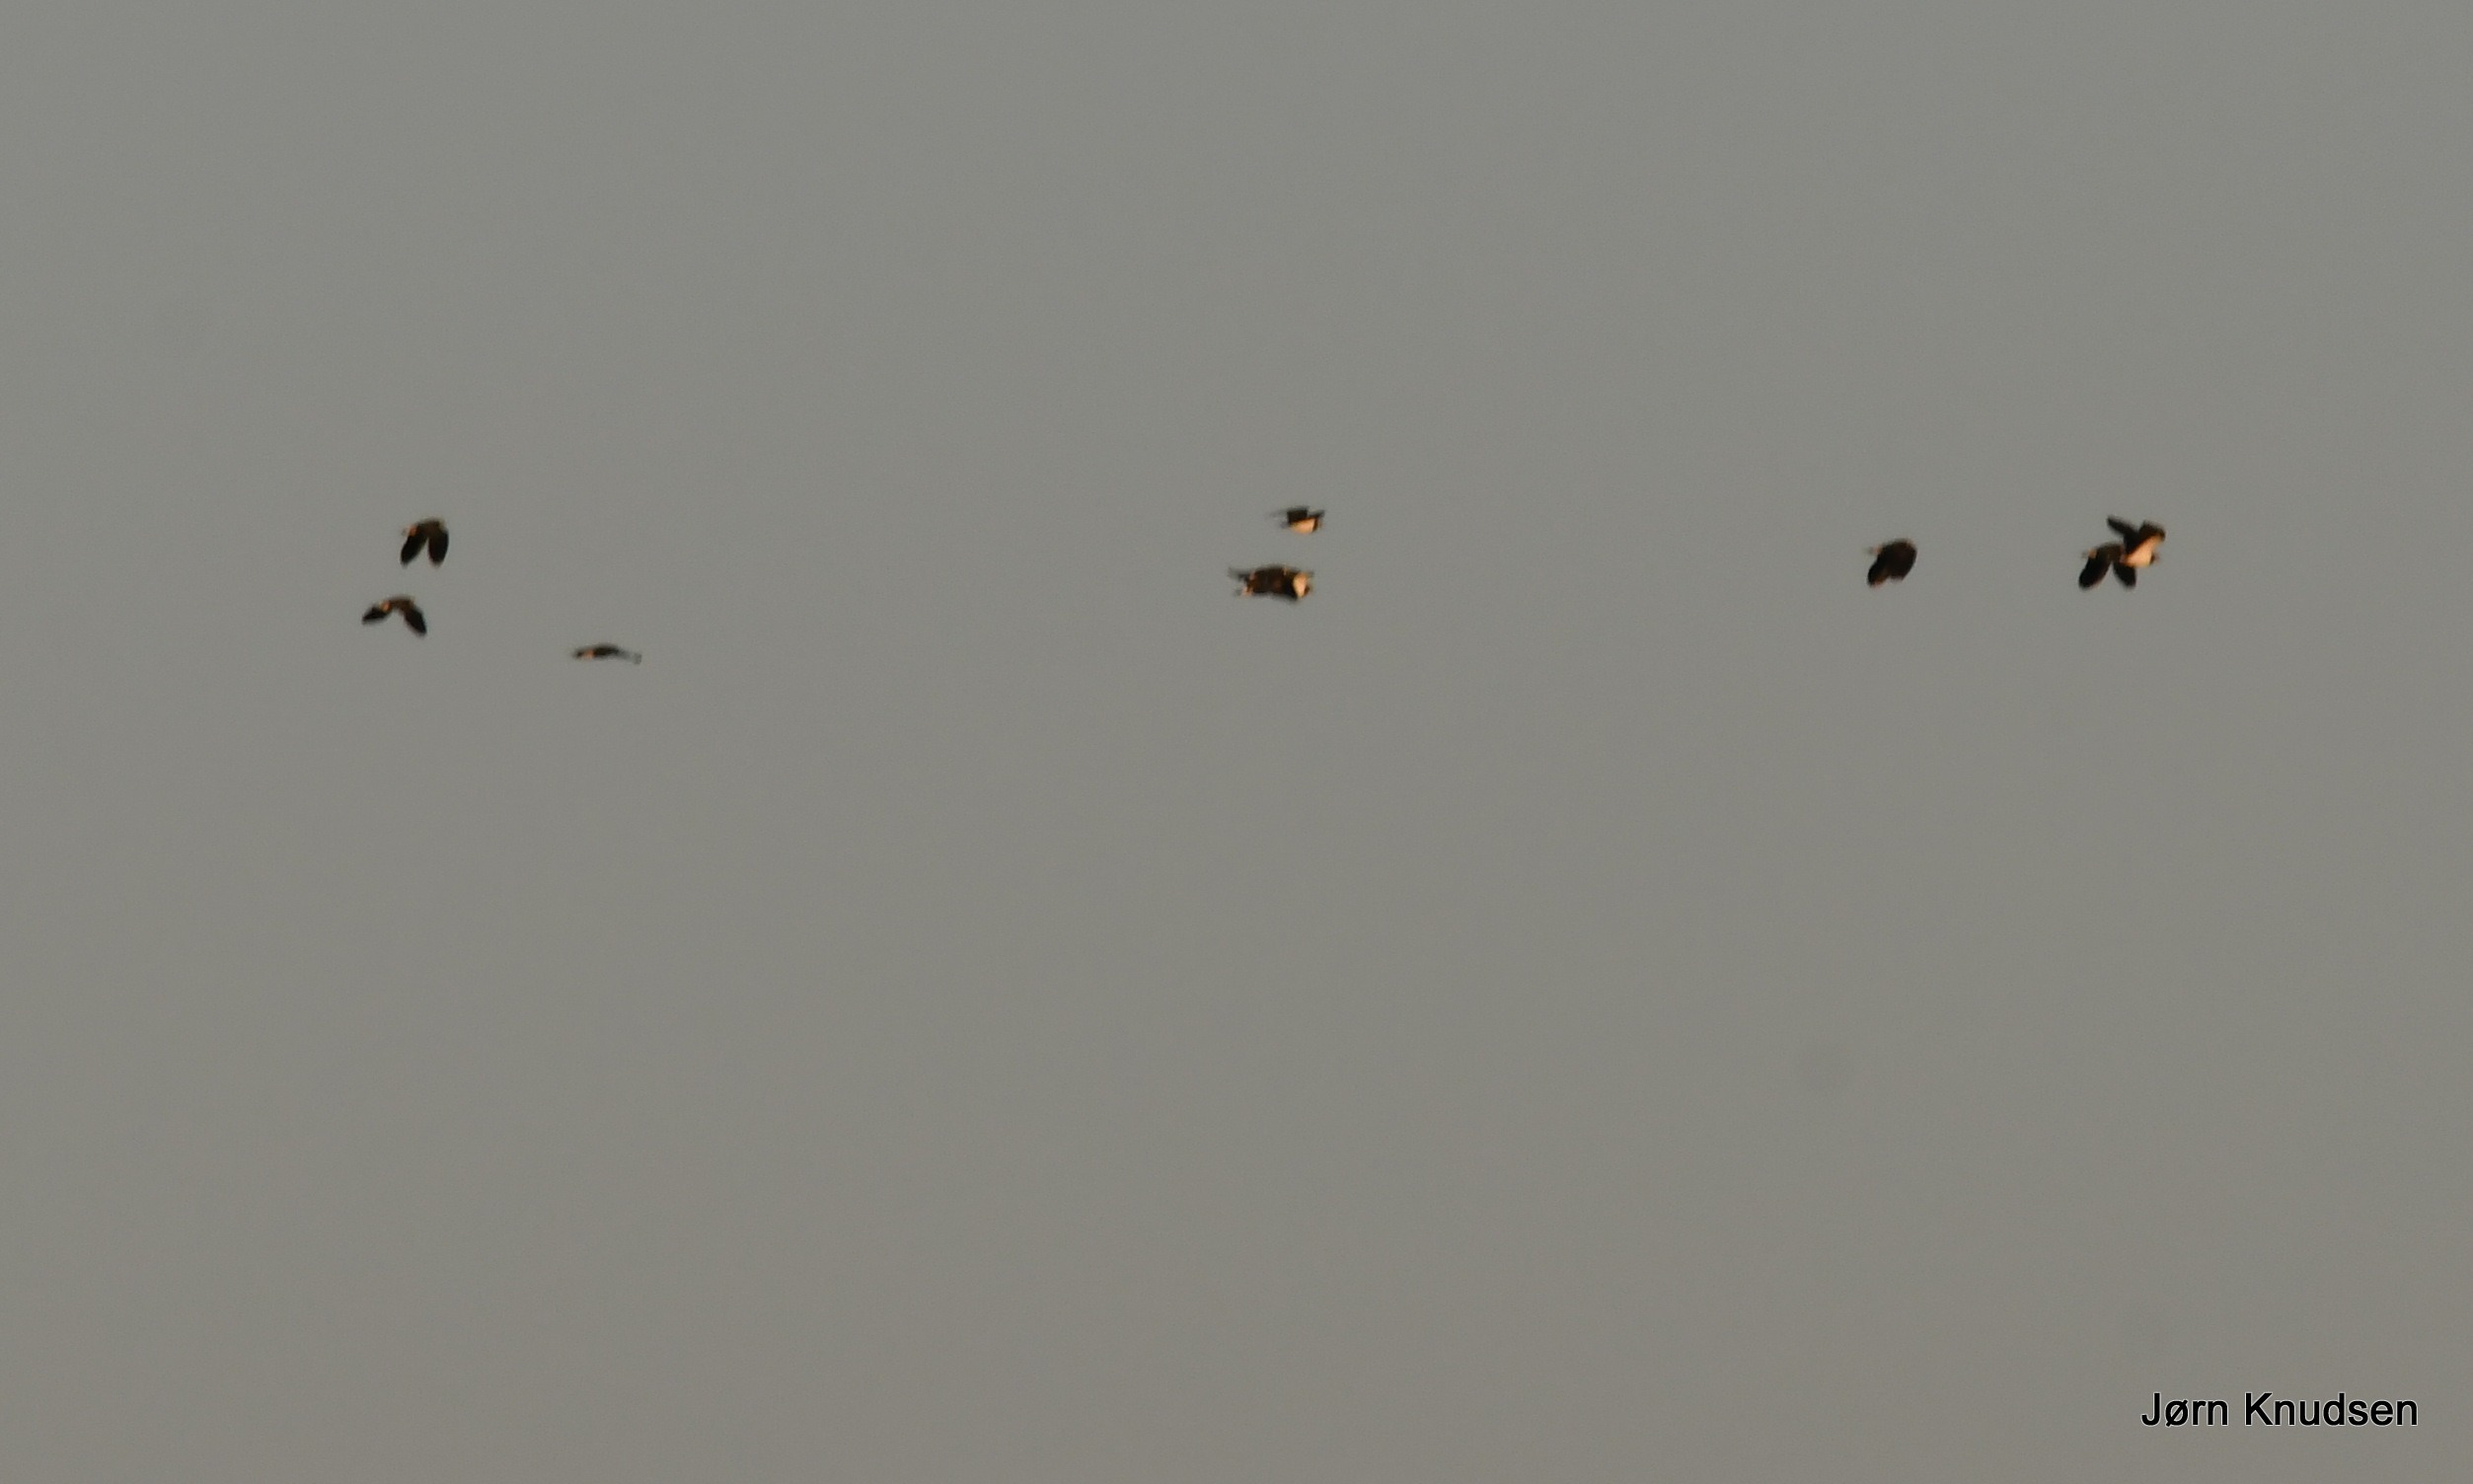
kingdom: Animalia
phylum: Chordata
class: Aves
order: Charadriiformes
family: Charadriidae
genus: Vanellus
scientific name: Vanellus vanellus
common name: Vibe
